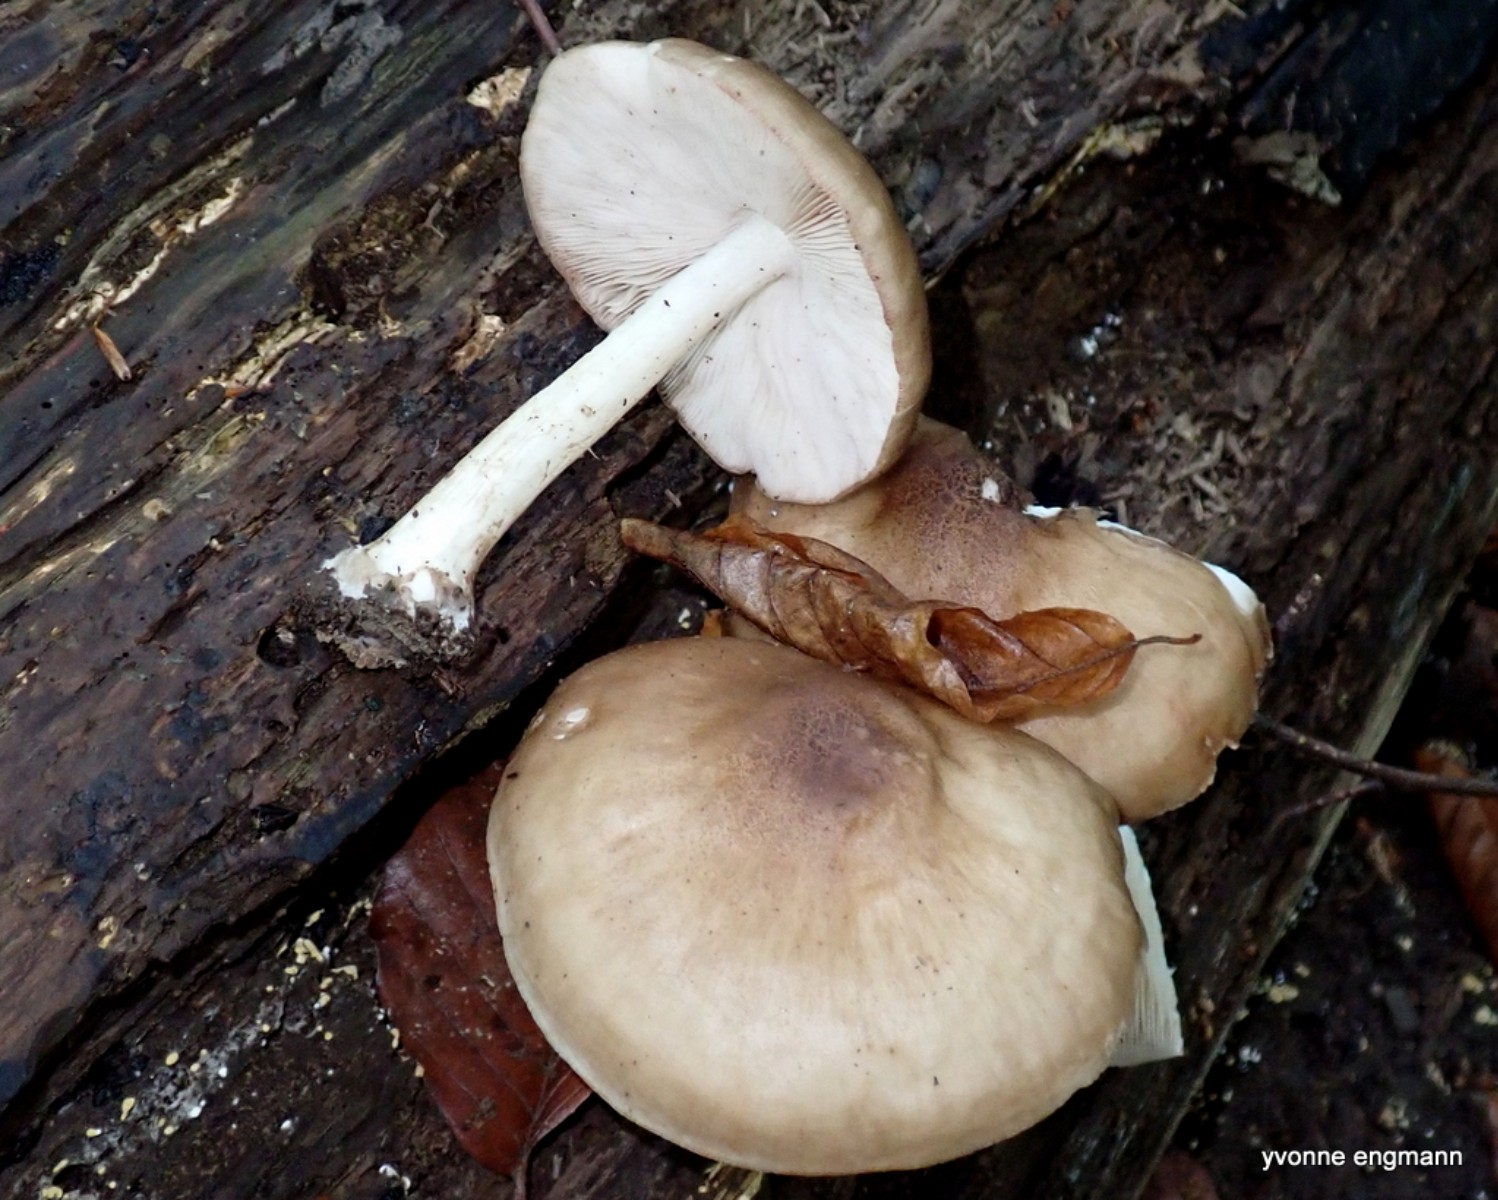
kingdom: Fungi
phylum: Basidiomycota
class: Agaricomycetes
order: Agaricales
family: Pluteaceae
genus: Pluteus
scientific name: Pluteus cervinus
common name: sodfarvet skærmhat
